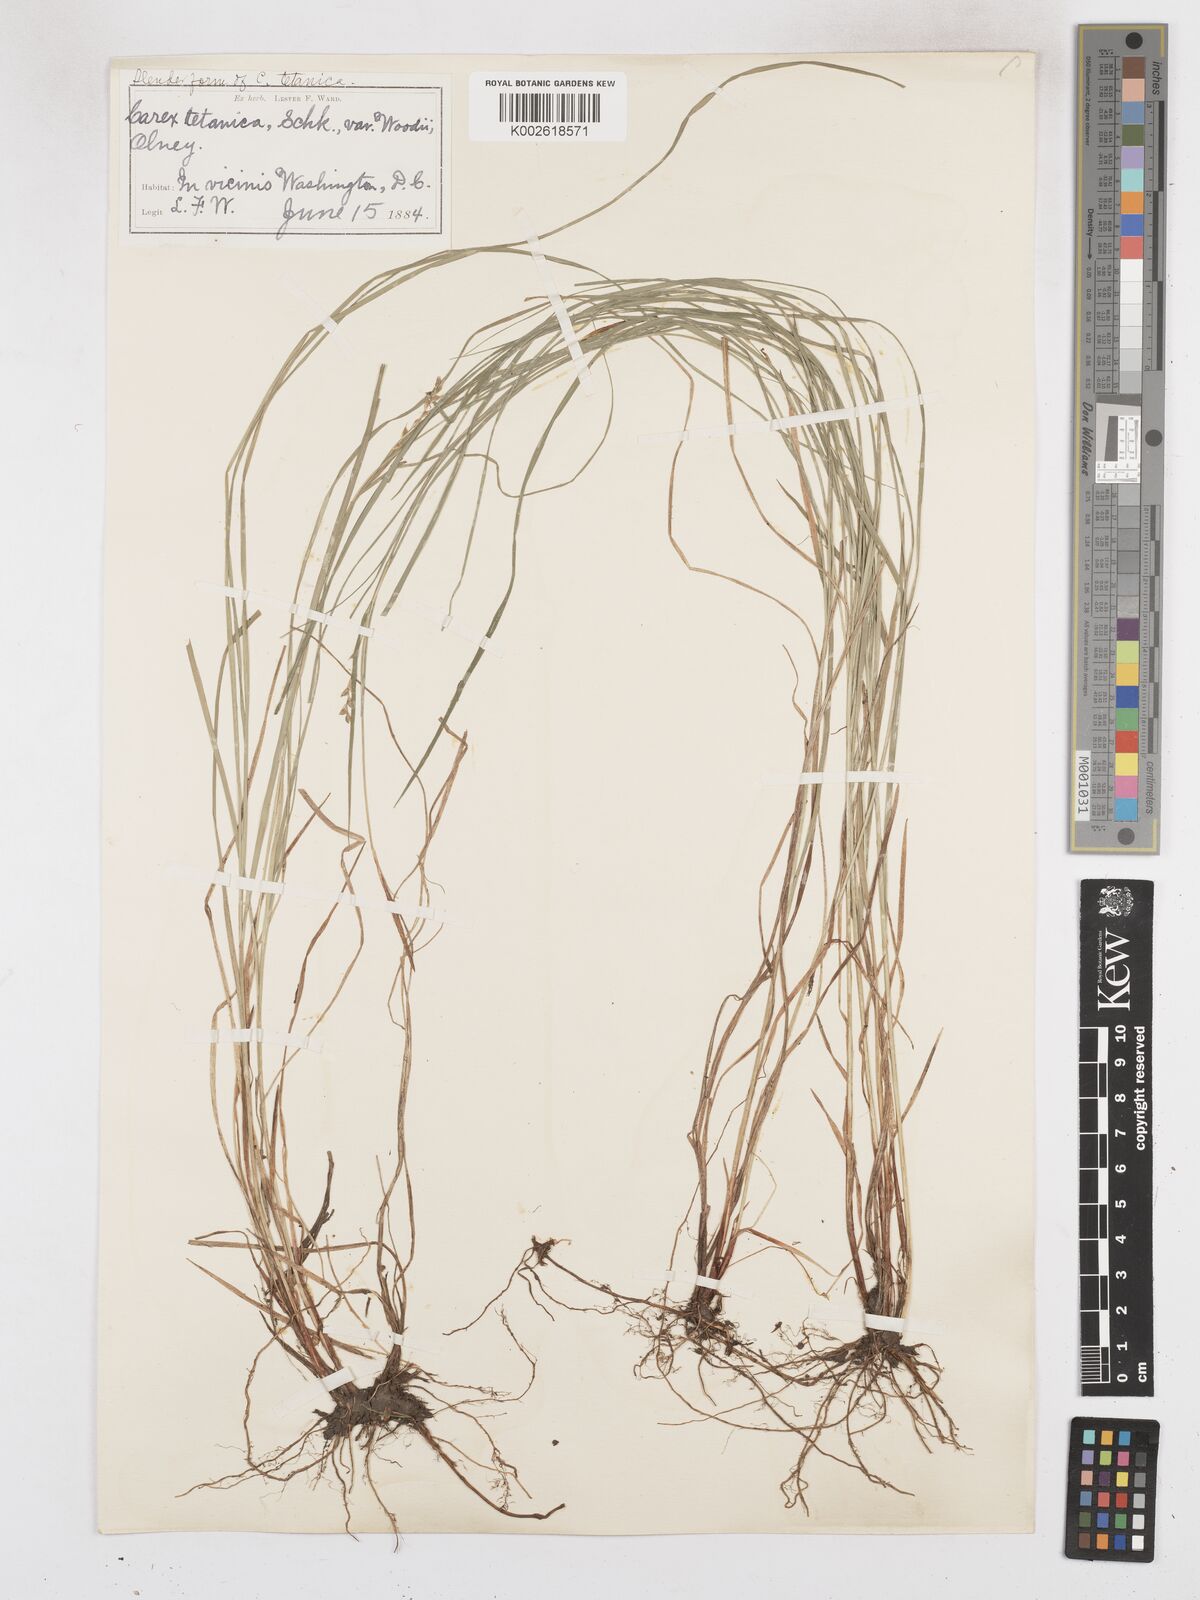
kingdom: Plantae
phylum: Tracheophyta
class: Liliopsida
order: Poales
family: Cyperaceae
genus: Carex
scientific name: Carex woodii
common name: Wood's sedge
